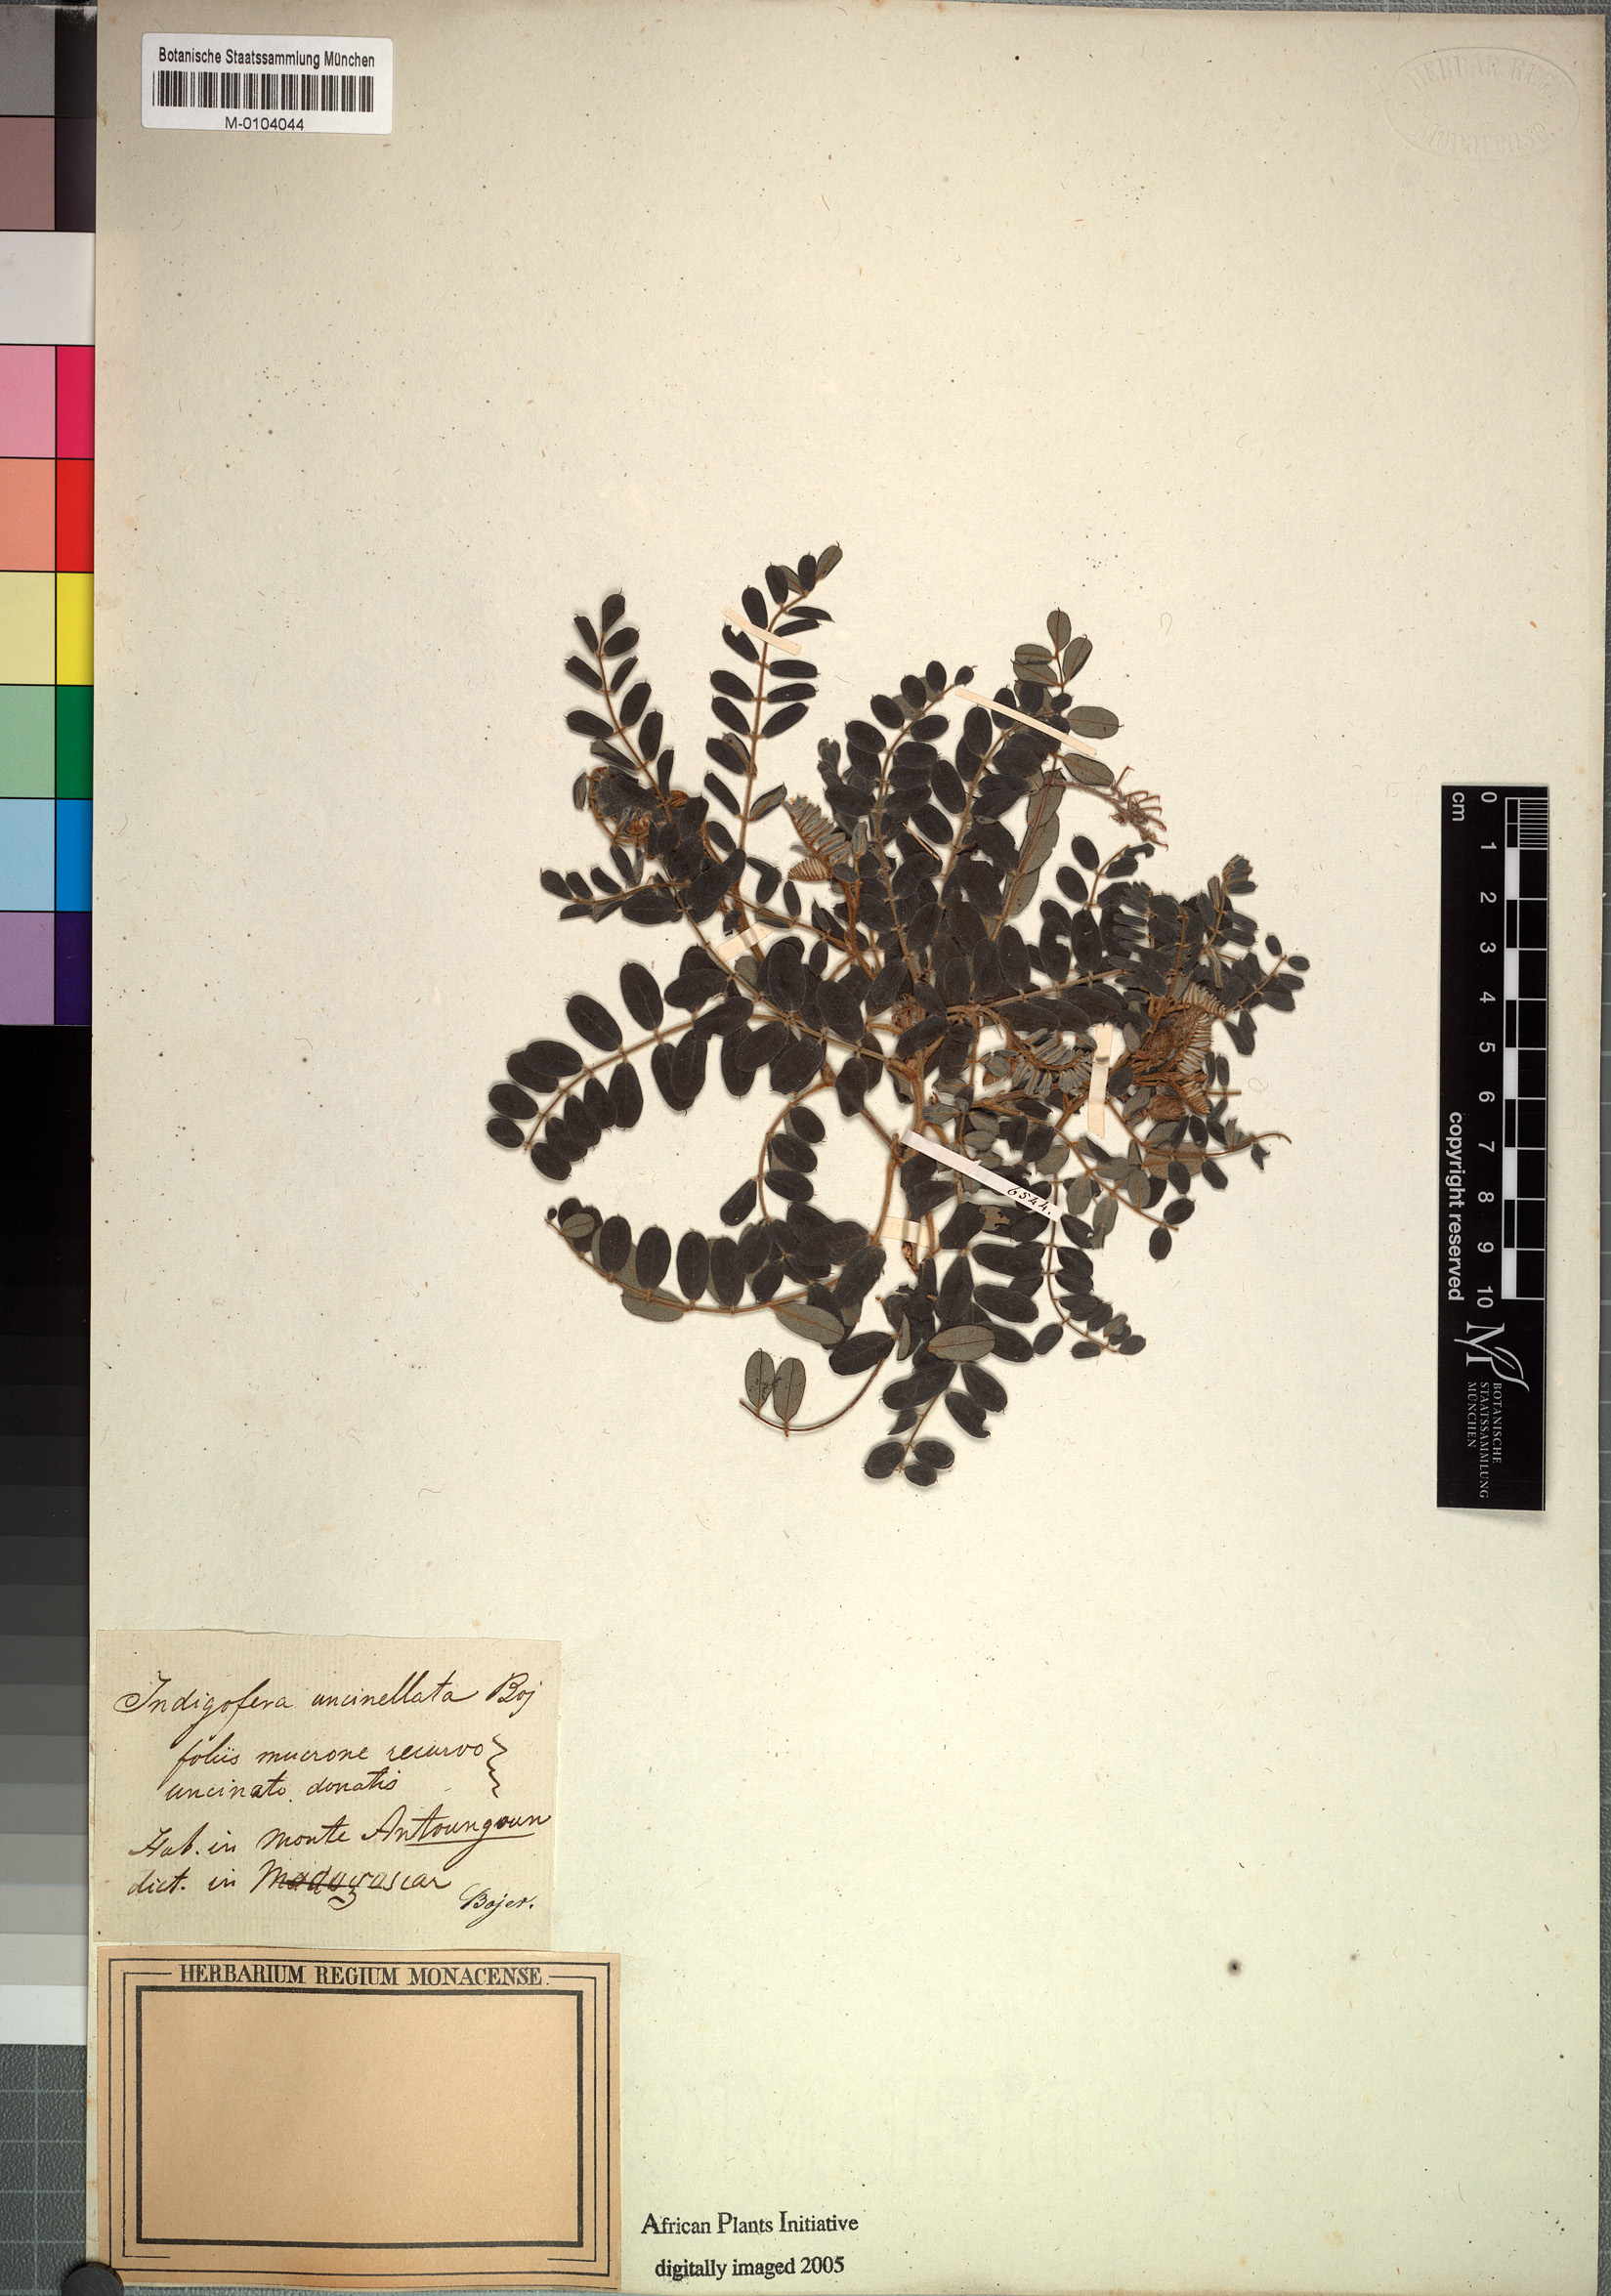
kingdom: Plantae
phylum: Tracheophyta
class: Magnoliopsida
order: Fabales
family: Fabaceae
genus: Indigofera
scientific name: Indigofera
